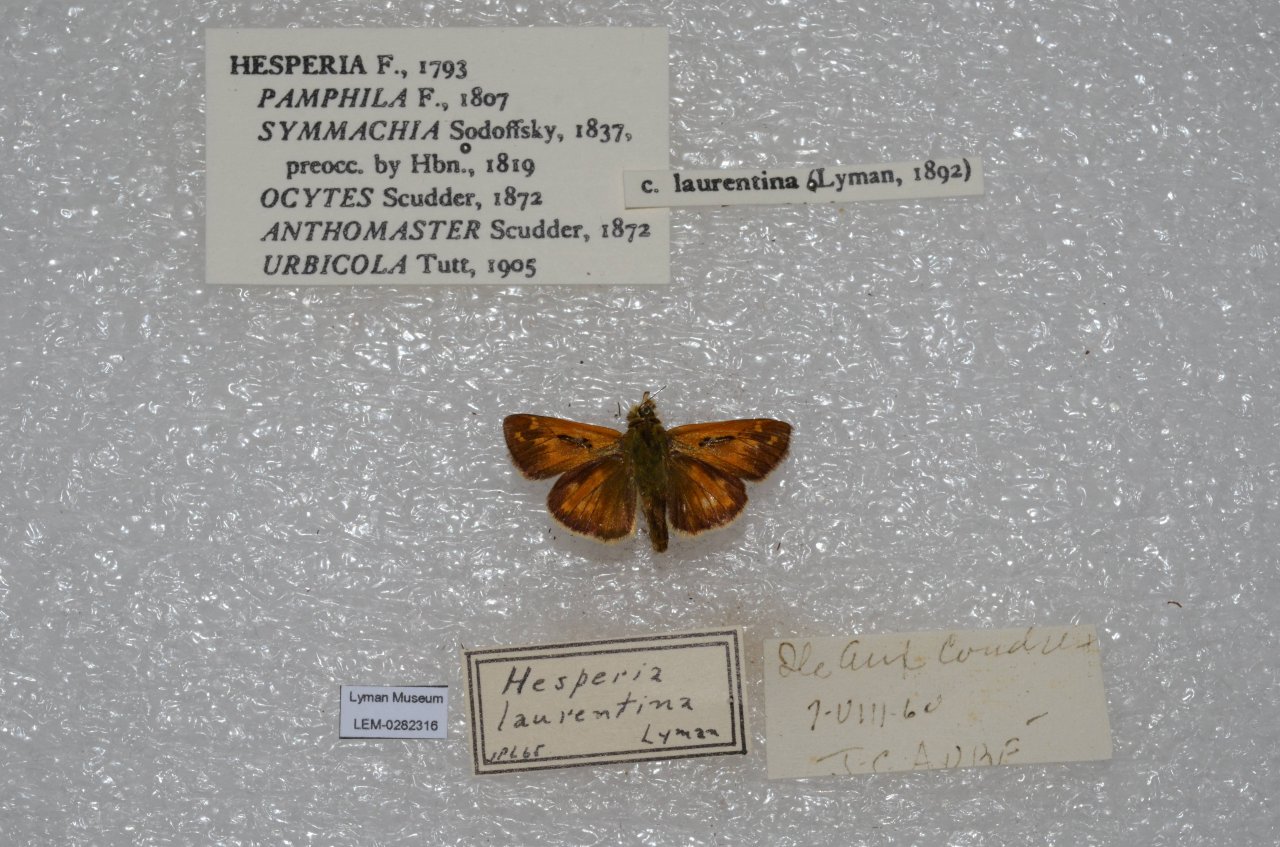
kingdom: Animalia
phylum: Arthropoda
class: Insecta
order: Lepidoptera
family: Hesperiidae
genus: Hesperia
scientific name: Hesperia comma
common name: Common Branded Skipper
